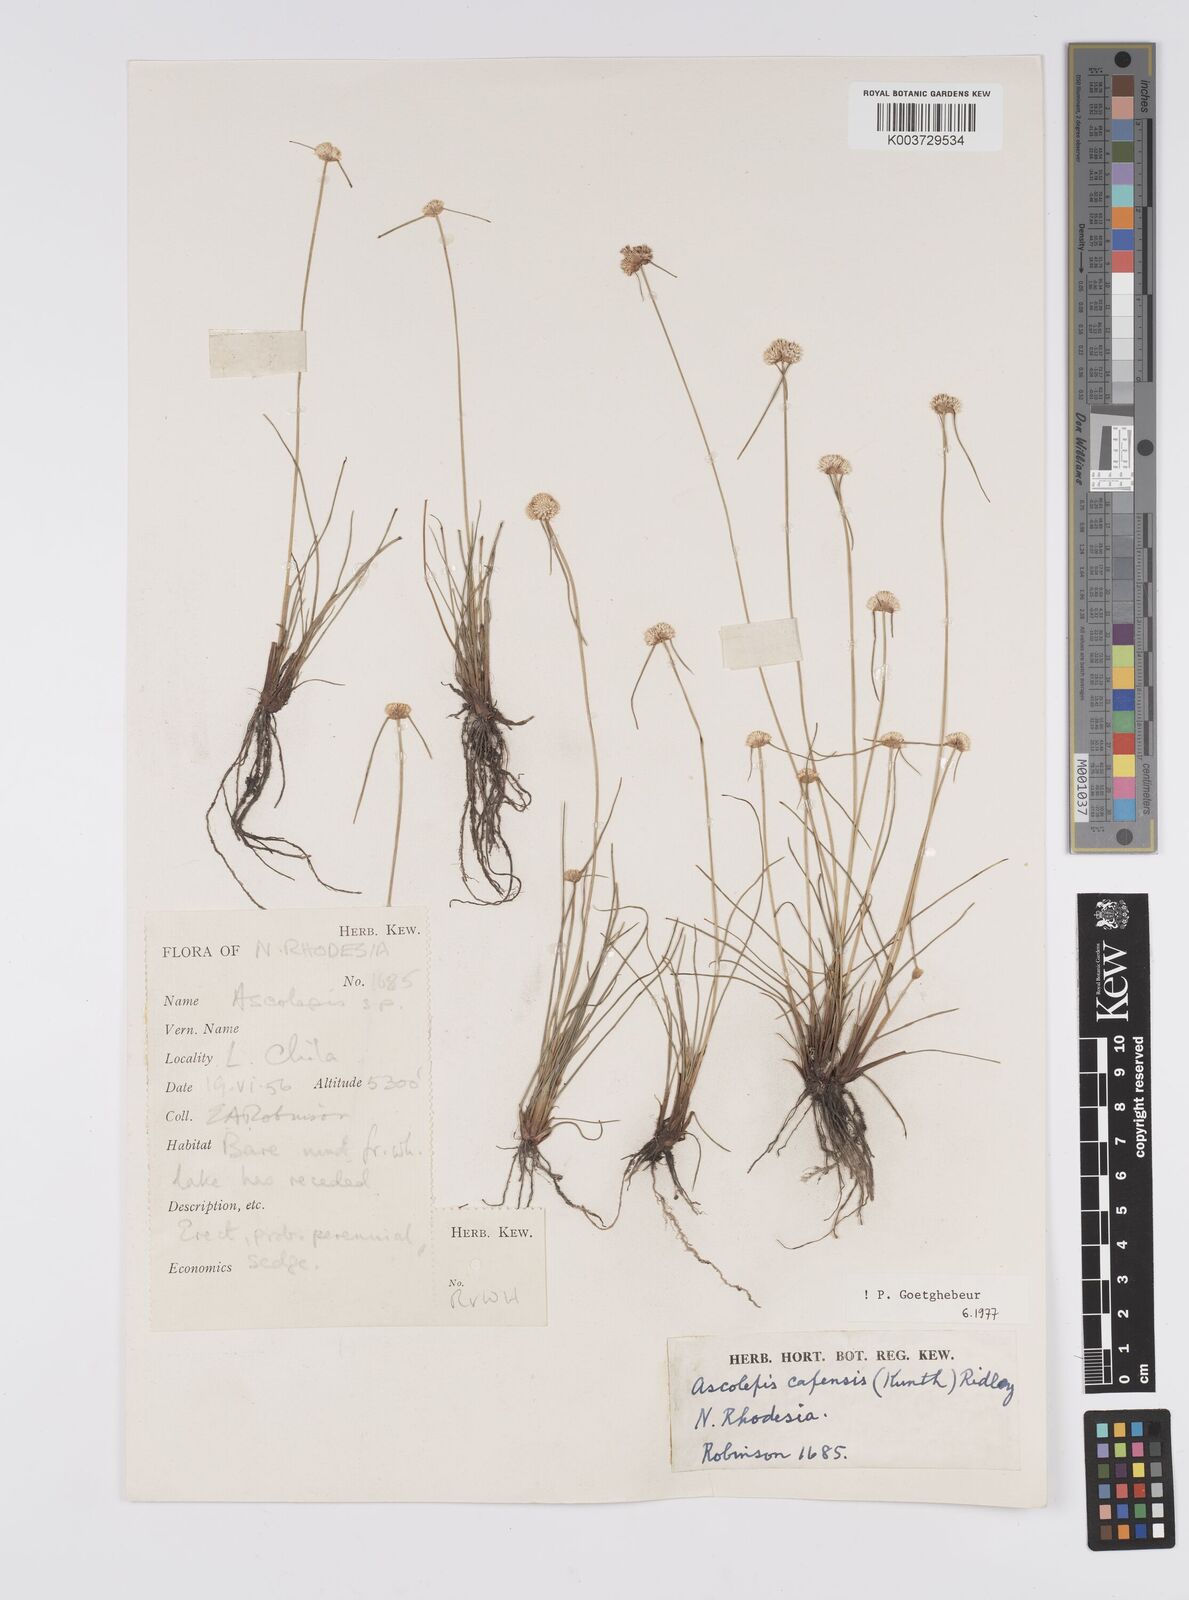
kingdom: Plantae
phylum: Tracheophyta
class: Liliopsida
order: Poales
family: Cyperaceae
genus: Cyperus
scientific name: Cyperus
